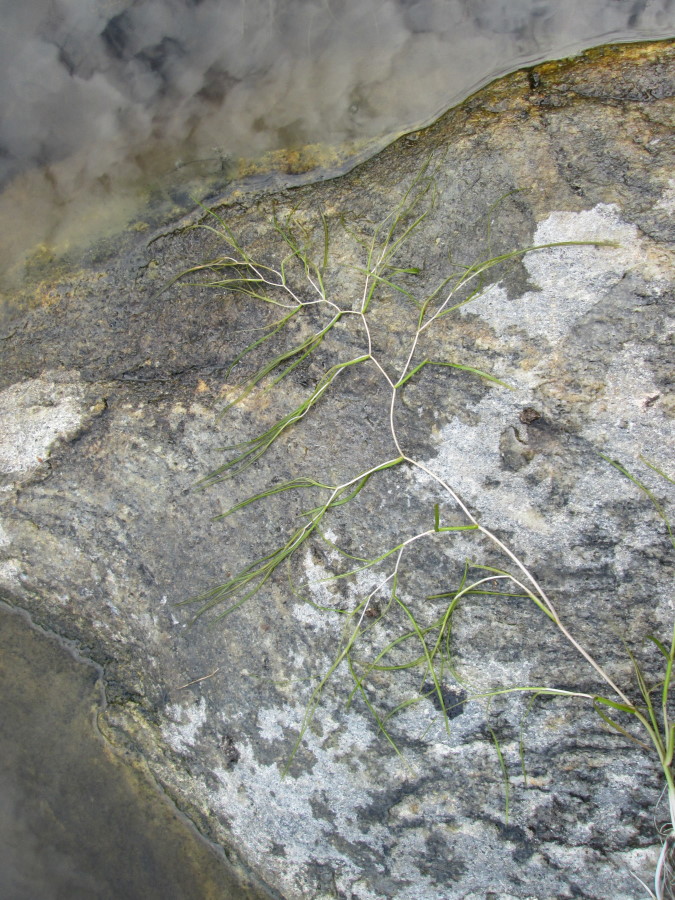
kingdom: Plantae
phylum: Tracheophyta
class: Liliopsida
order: Alismatales
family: Potamogetonaceae
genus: Stuckenia
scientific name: Stuckenia pectinata
